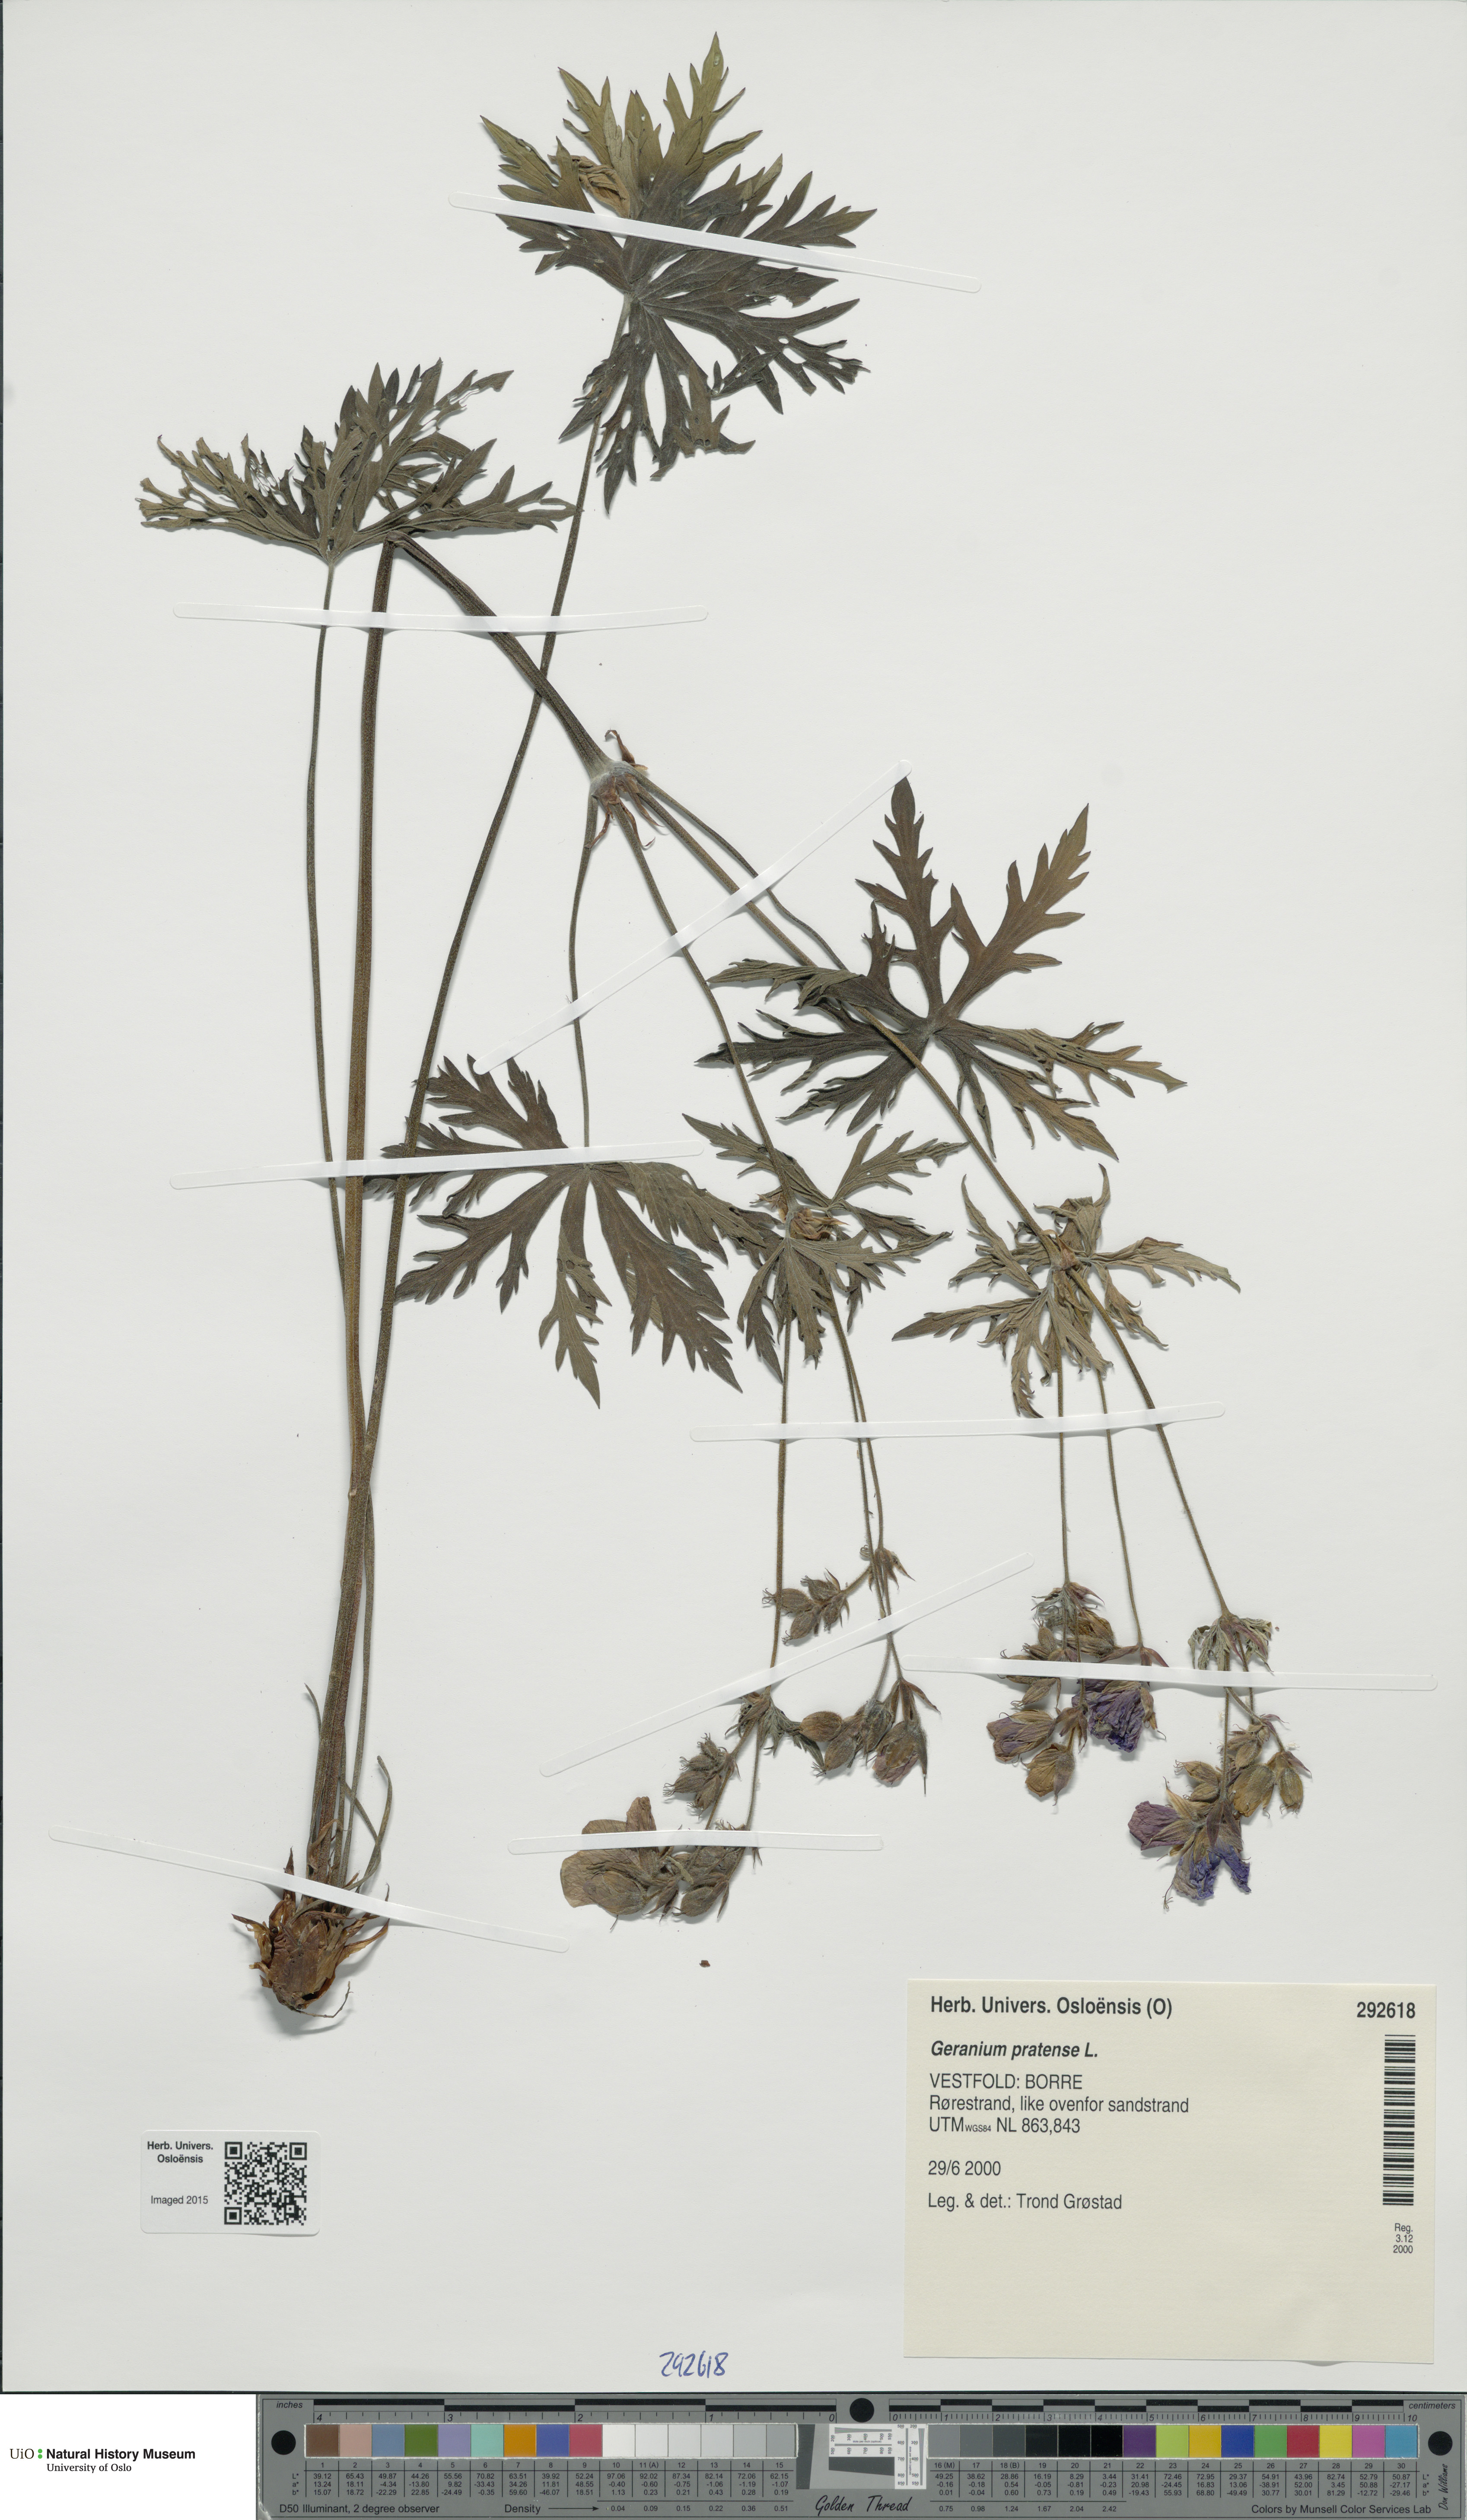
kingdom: Plantae
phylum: Tracheophyta
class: Magnoliopsida
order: Geraniales
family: Geraniaceae
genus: Geranium
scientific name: Geranium pratense
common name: Meadow crane's-bill
